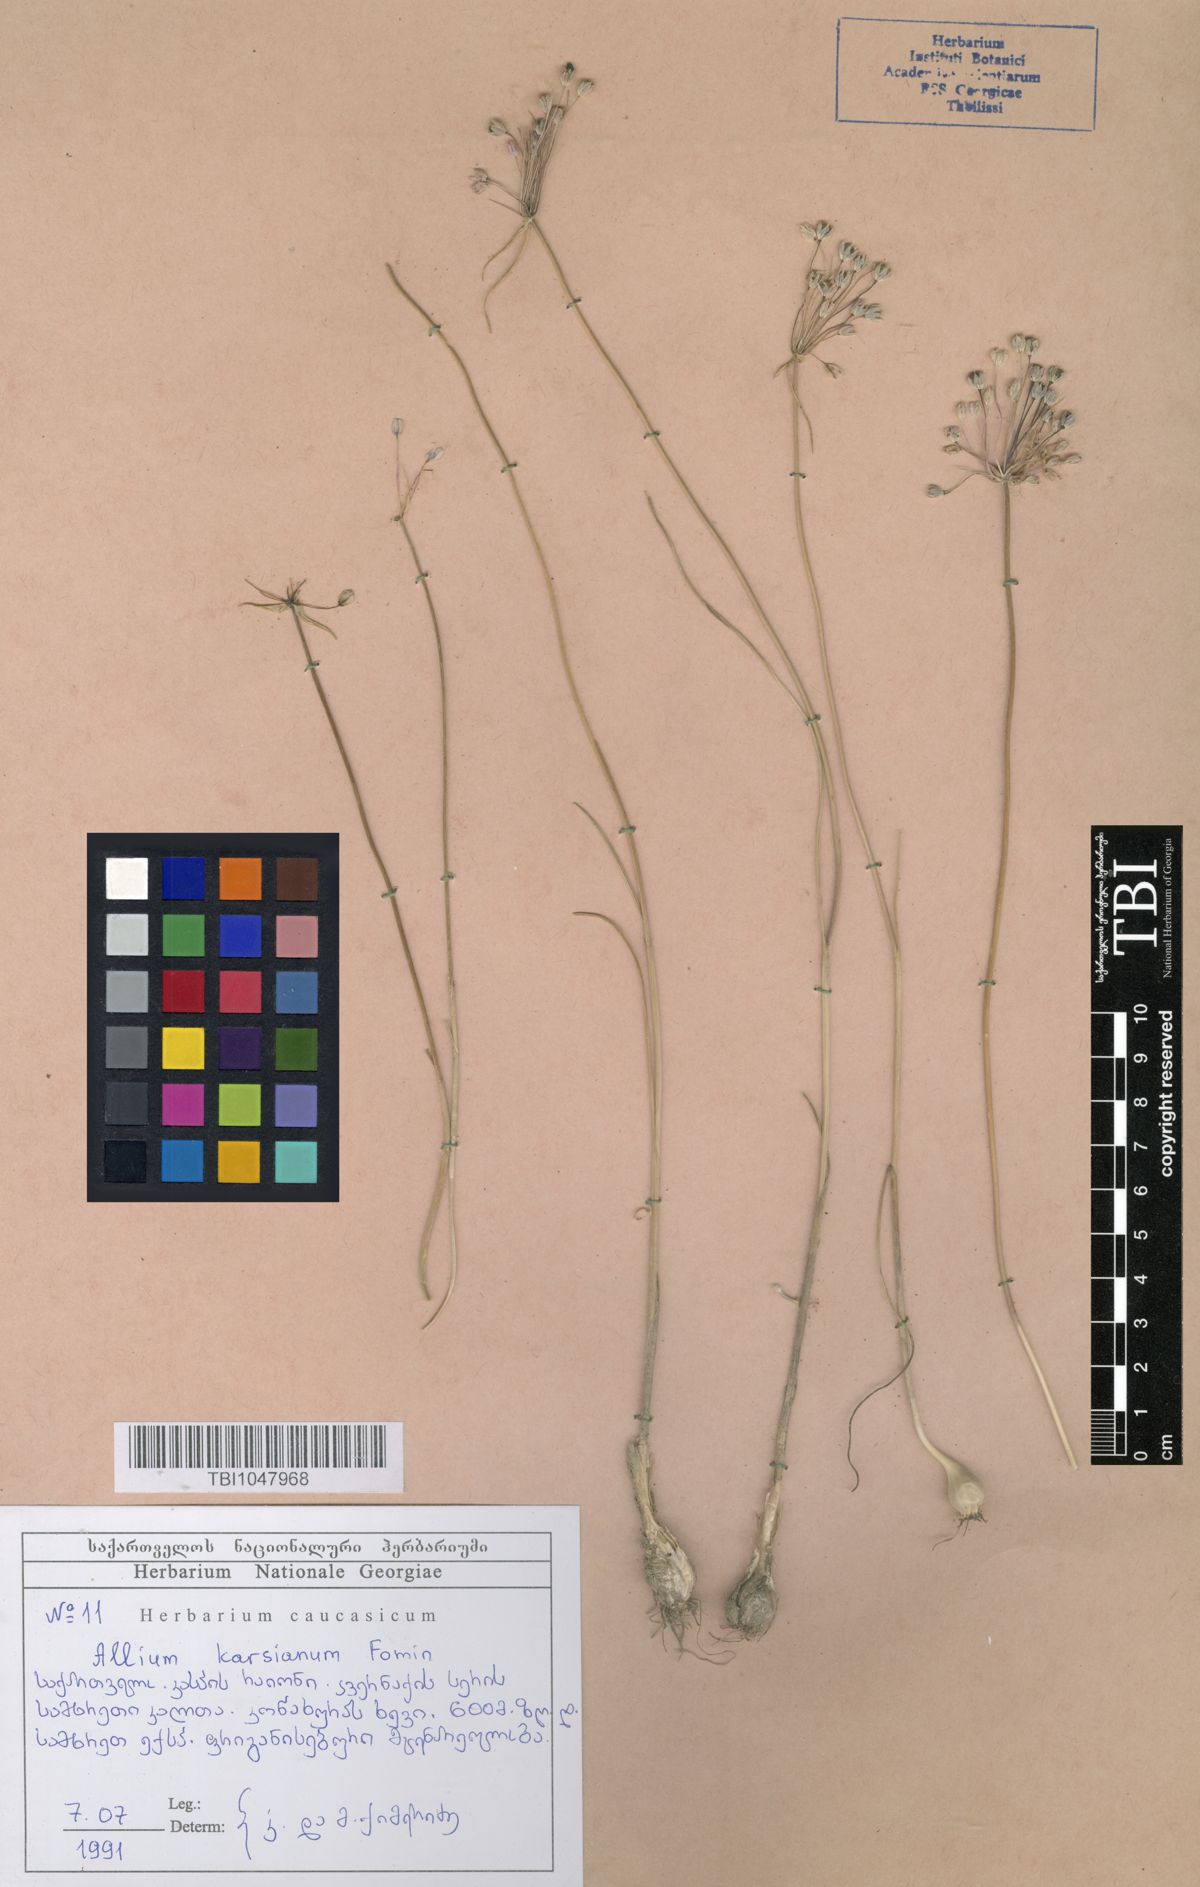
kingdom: Plantae
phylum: Tracheophyta
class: Liliopsida
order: Asparagales
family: Amaryllidaceae
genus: Allium
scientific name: Allium paniculatum
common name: Pale garlic
